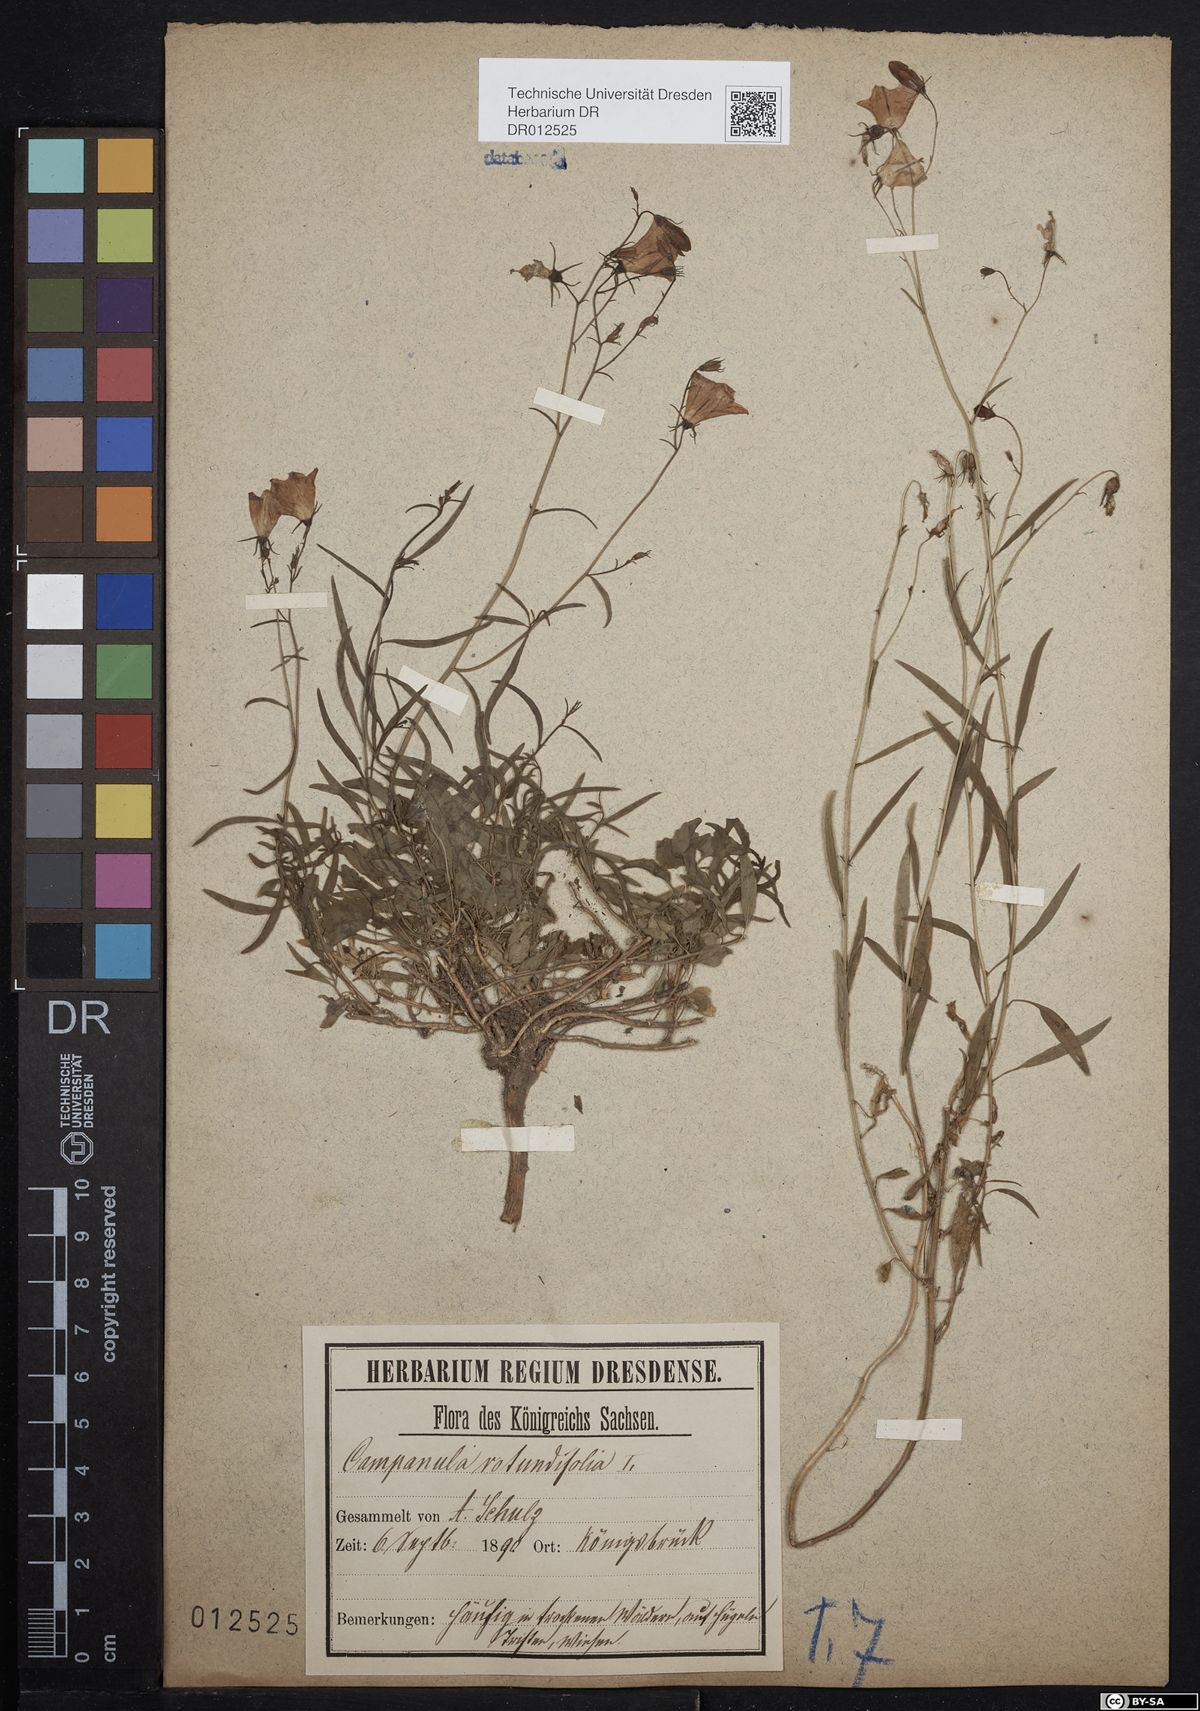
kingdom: Plantae
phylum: Tracheophyta
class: Magnoliopsida
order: Asterales
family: Campanulaceae
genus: Campanula
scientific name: Campanula rotundifolia
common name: Harebell
